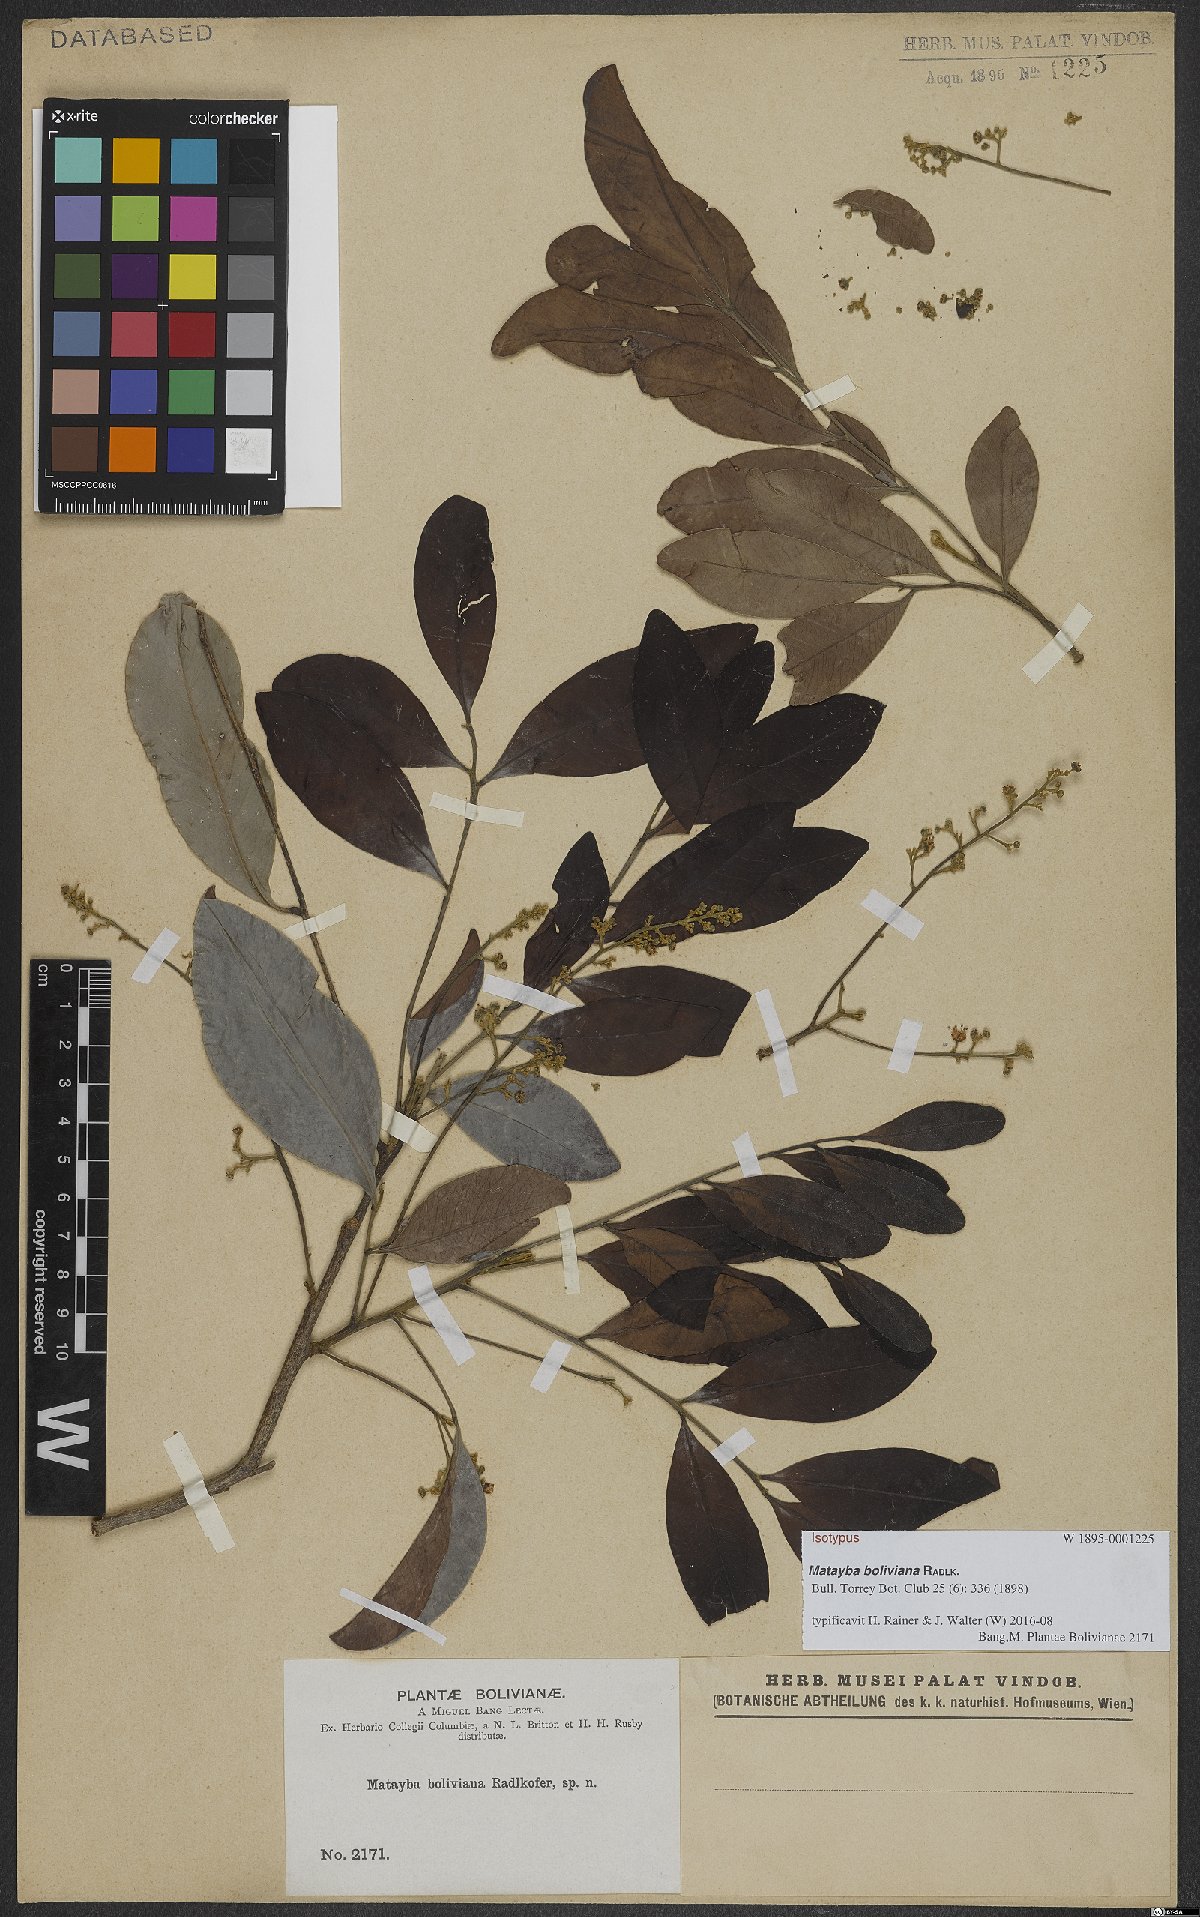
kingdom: Plantae
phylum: Tracheophyta
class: Magnoliopsida
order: Sapindales
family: Sapindaceae
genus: Matayba
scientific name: Matayba boliviana
